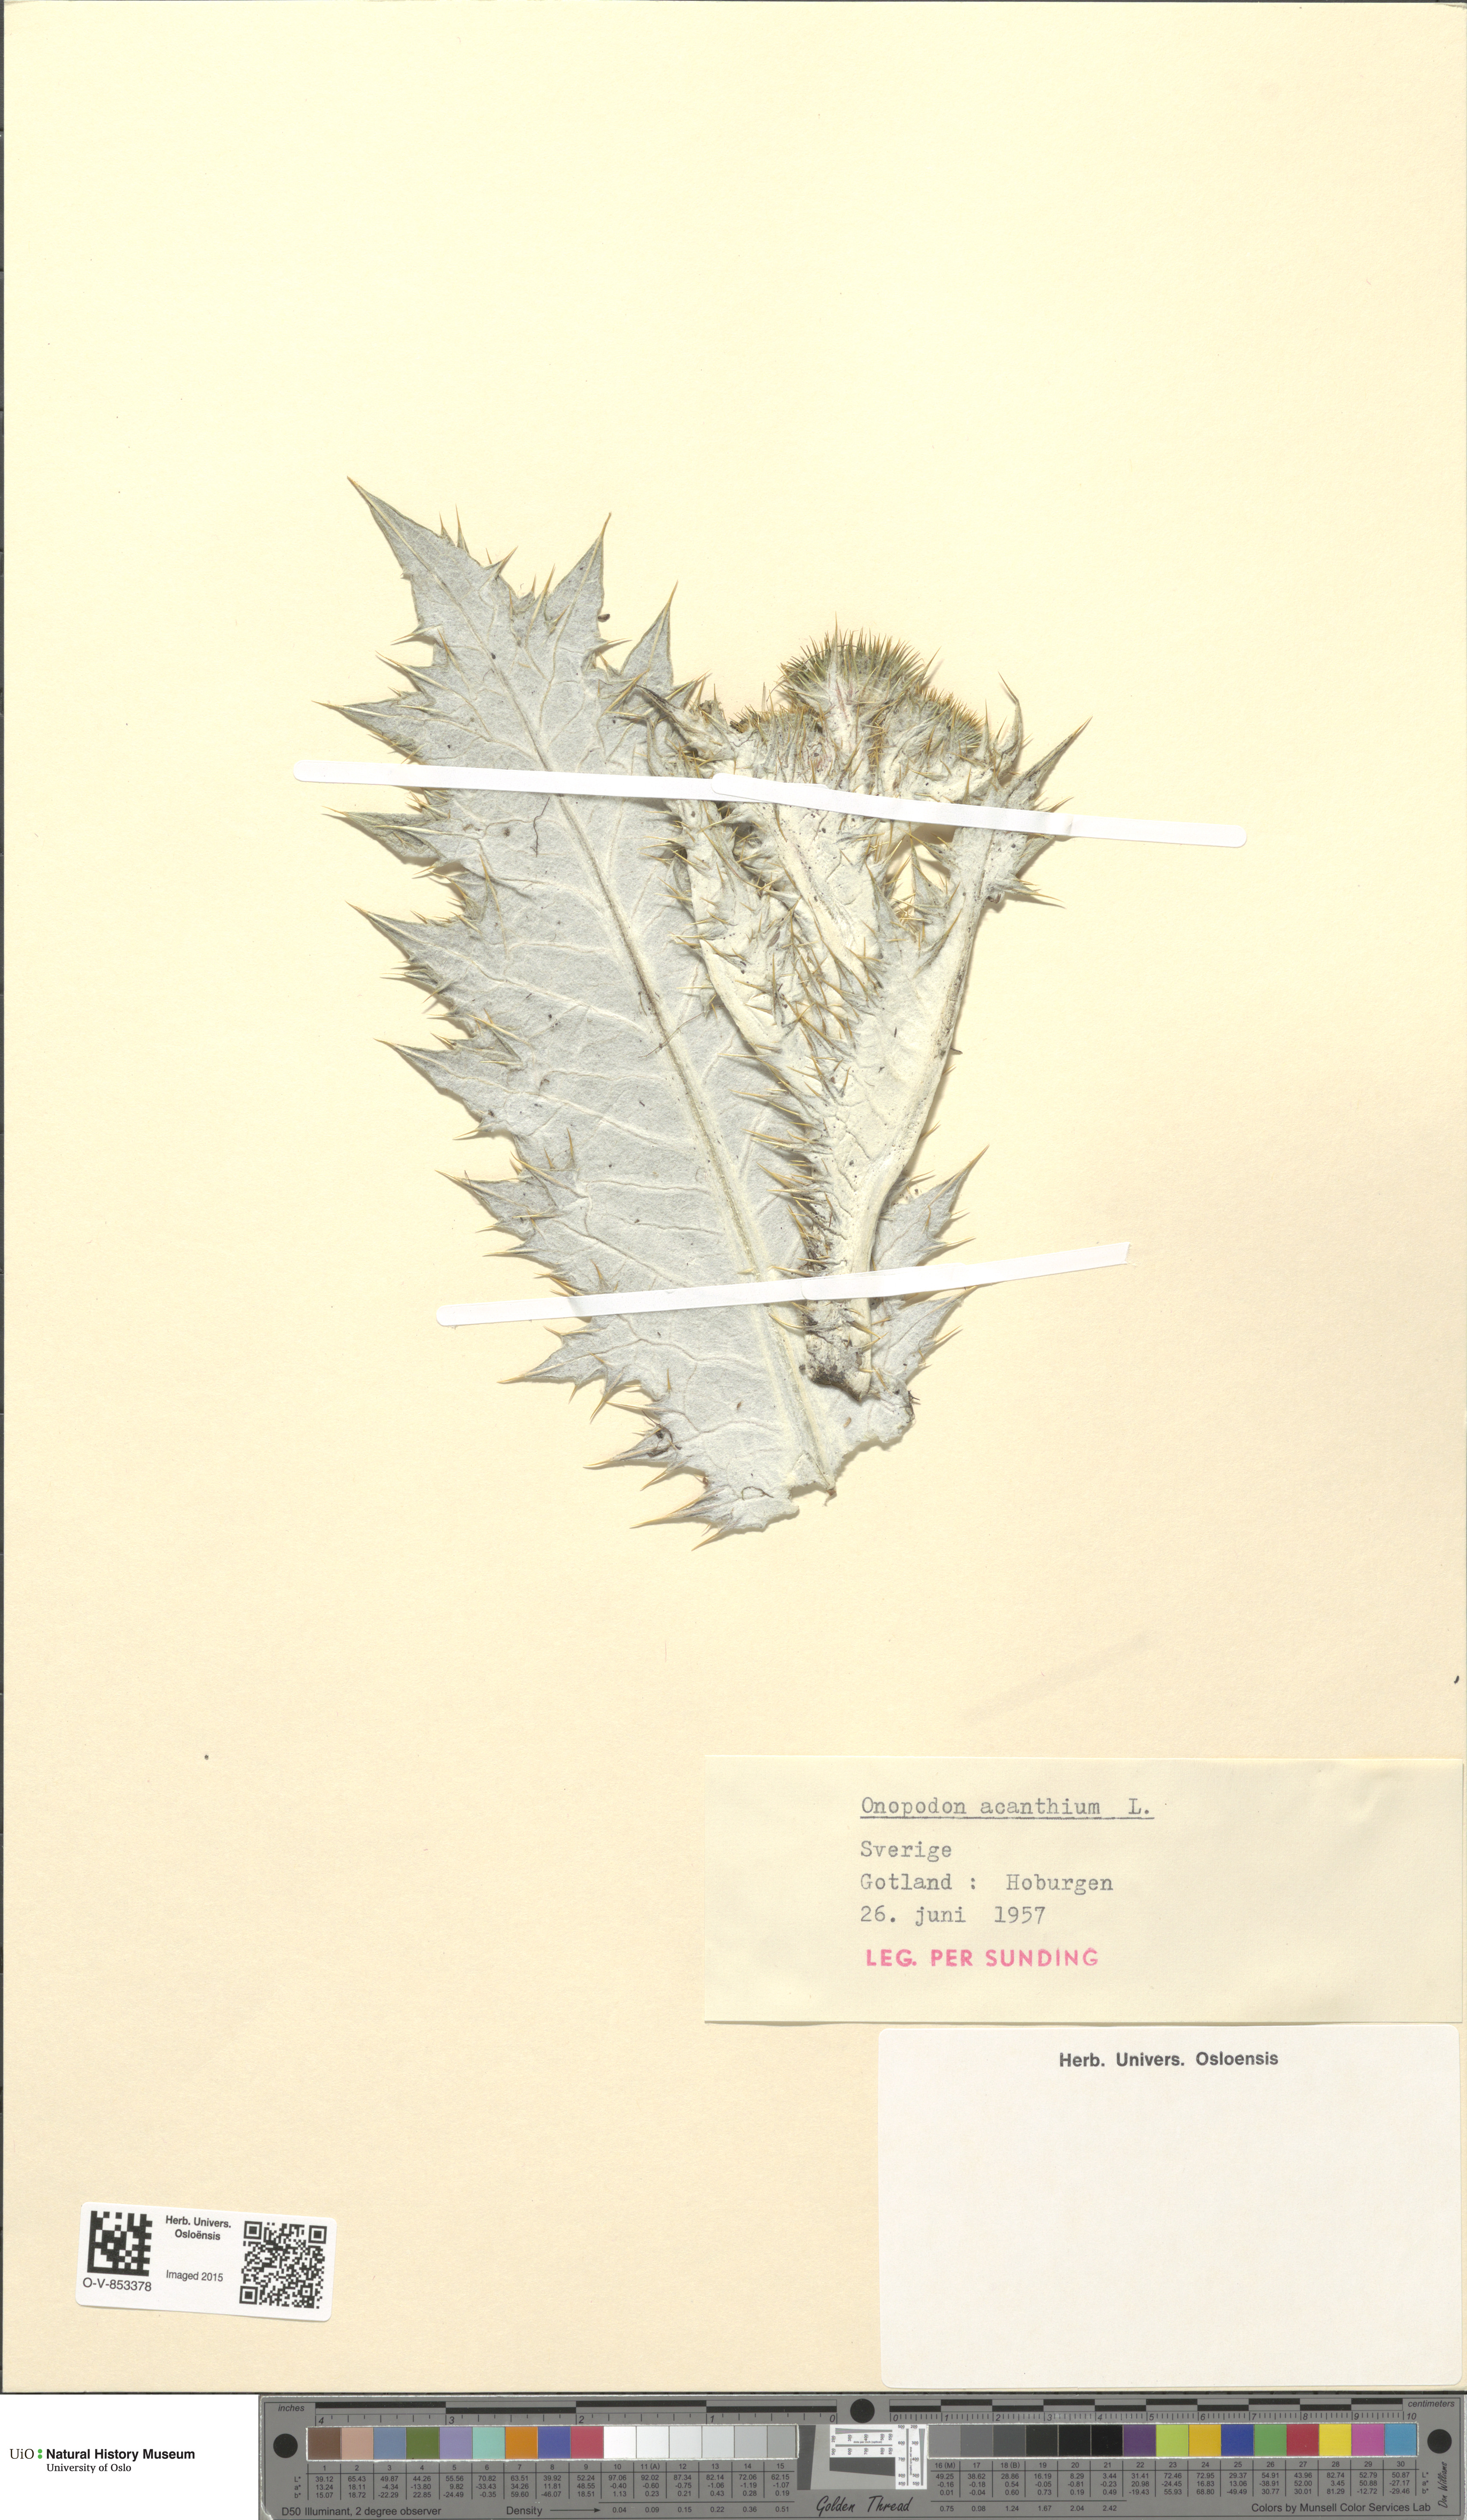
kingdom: Plantae
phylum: Tracheophyta
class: Magnoliopsida
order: Asterales
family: Asteraceae
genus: Onopordum
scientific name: Onopordum acanthium
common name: Scotch thistle
